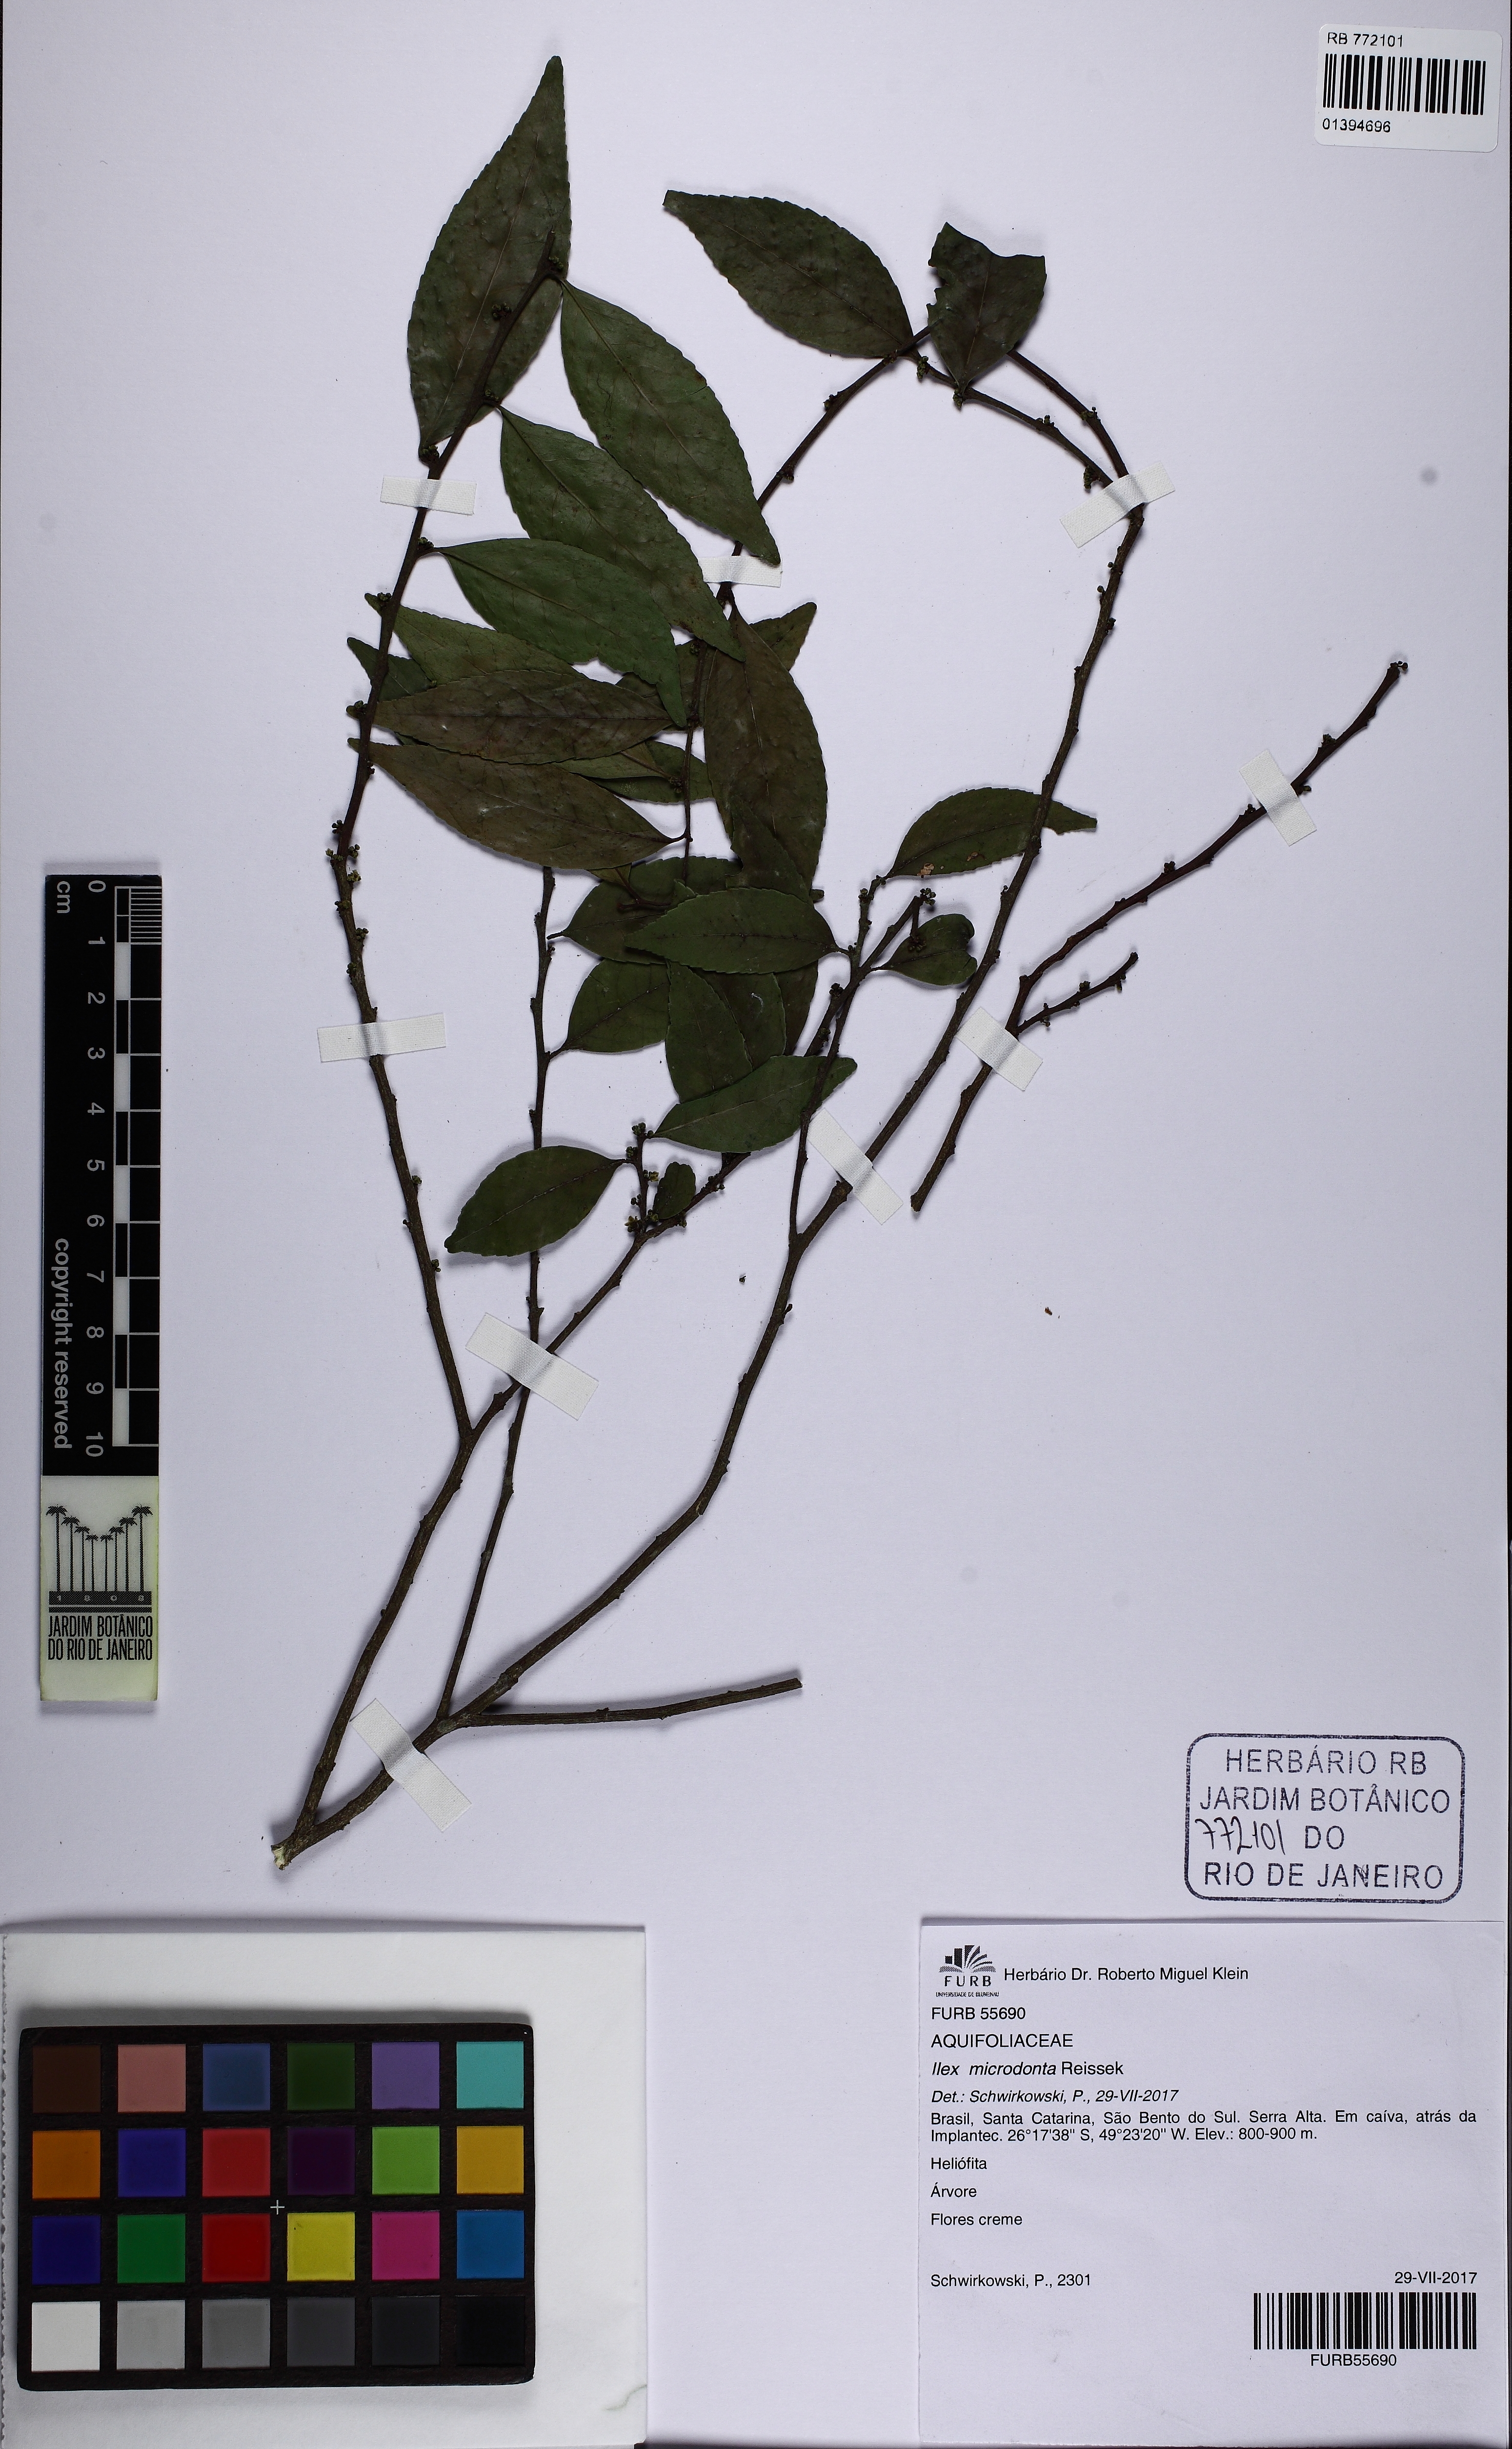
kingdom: Plantae
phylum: Tracheophyta
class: Magnoliopsida
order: Aquifoliales
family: Aquifoliaceae
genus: Ilex
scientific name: Ilex microdonta
